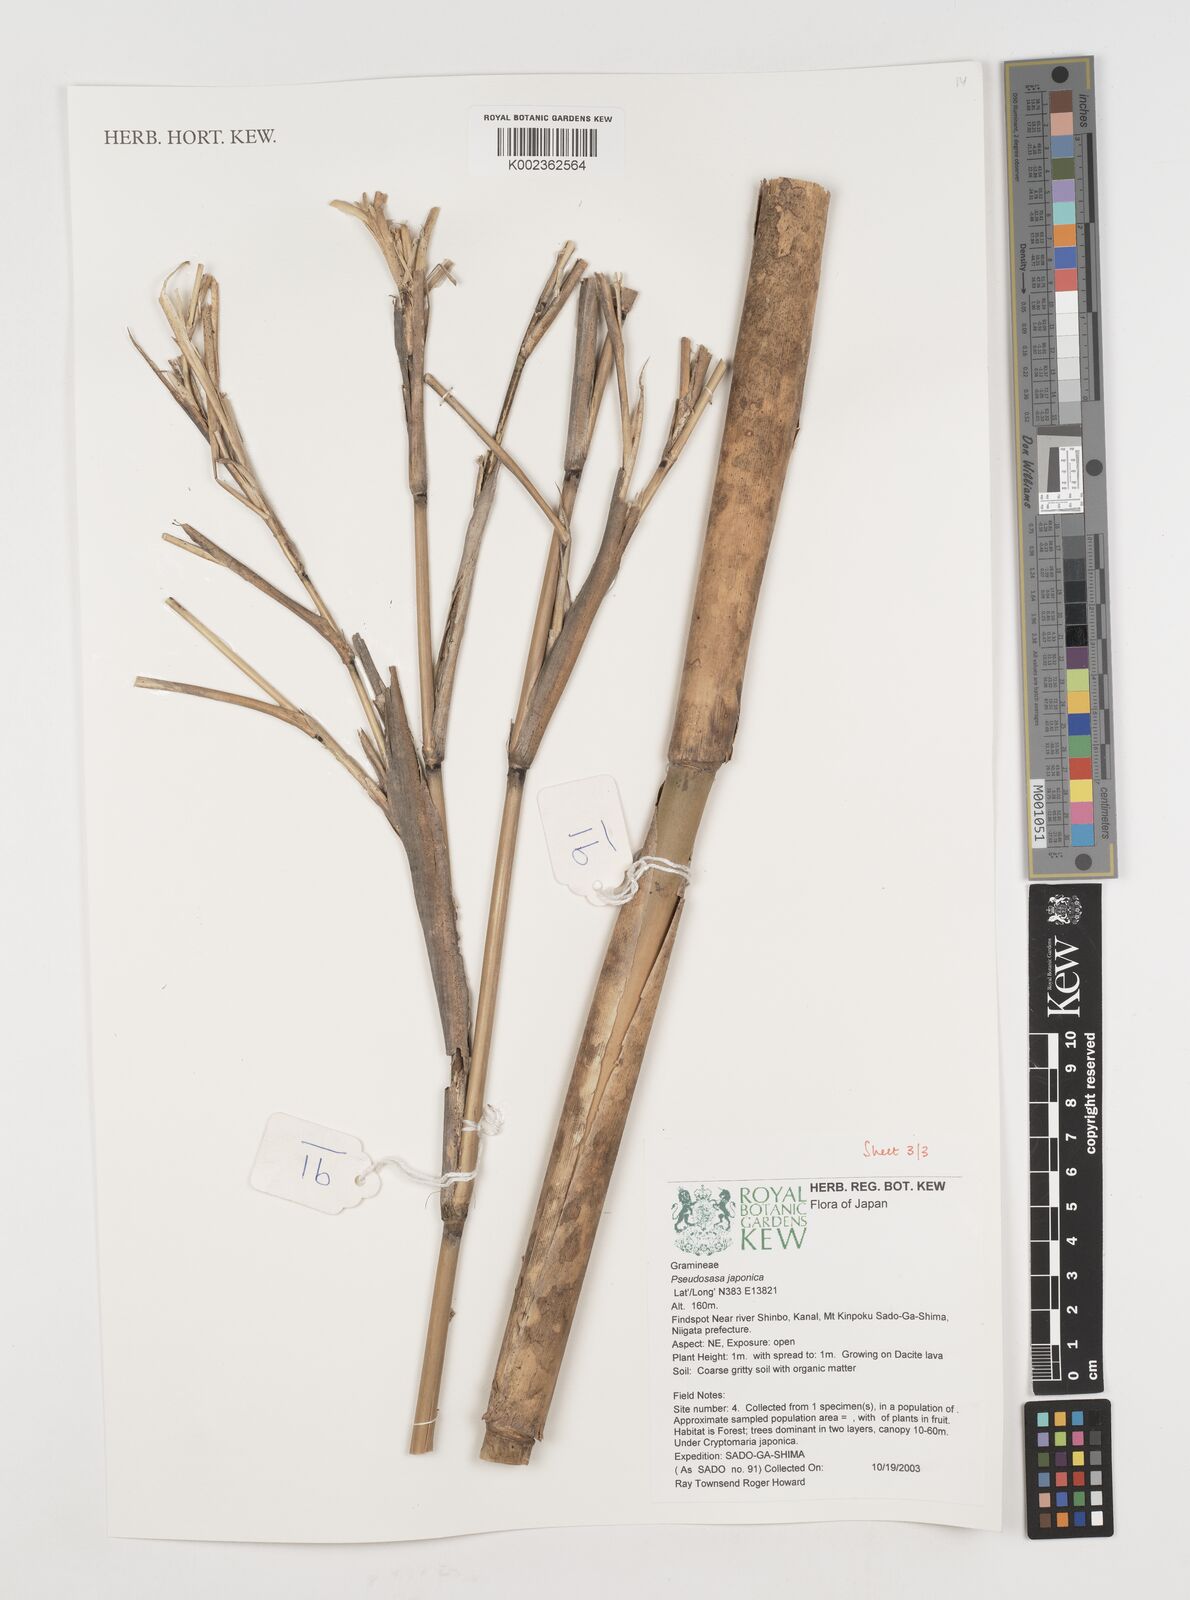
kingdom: Plantae
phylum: Tracheophyta
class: Liliopsida
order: Poales
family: Poaceae
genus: Pseudosasa
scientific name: Pseudosasa japonica
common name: Arrow bamboo
